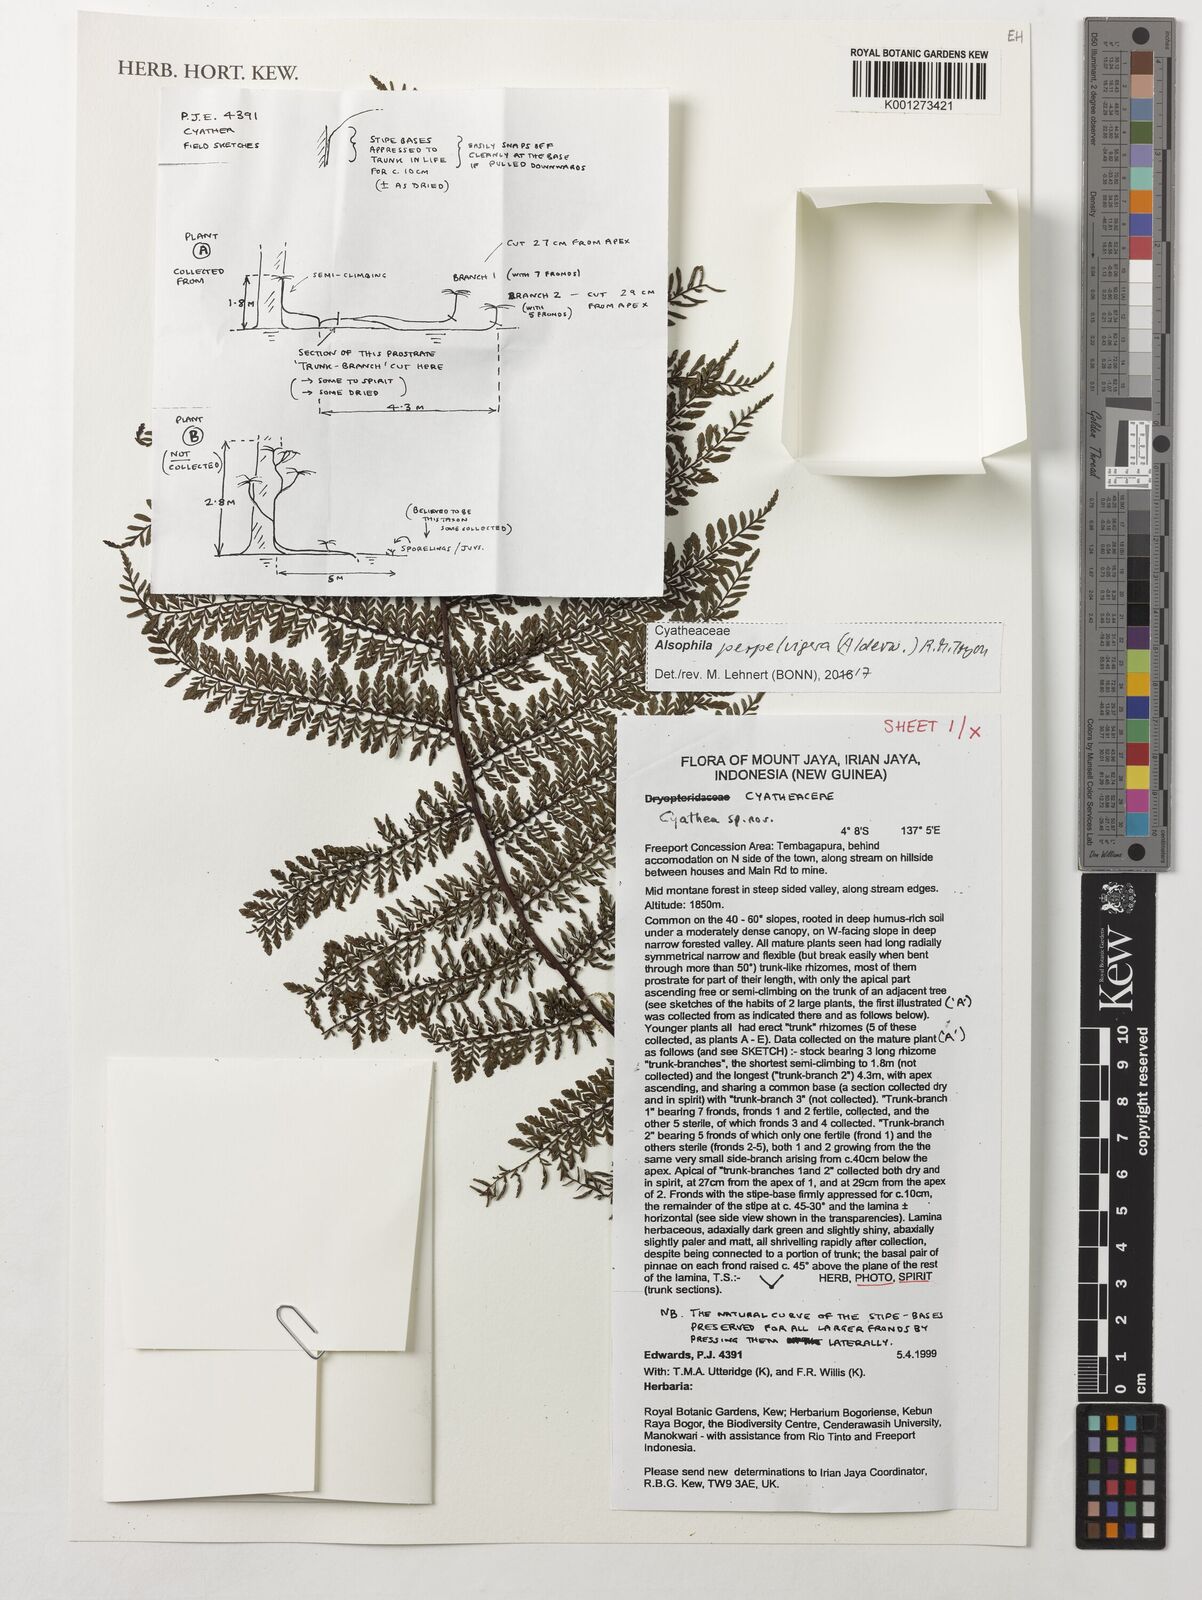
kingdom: Plantae
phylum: Tracheophyta
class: Polypodiopsida
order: Cyatheales
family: Cyatheaceae
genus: Alsophila
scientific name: Alsophila perpelvigera
